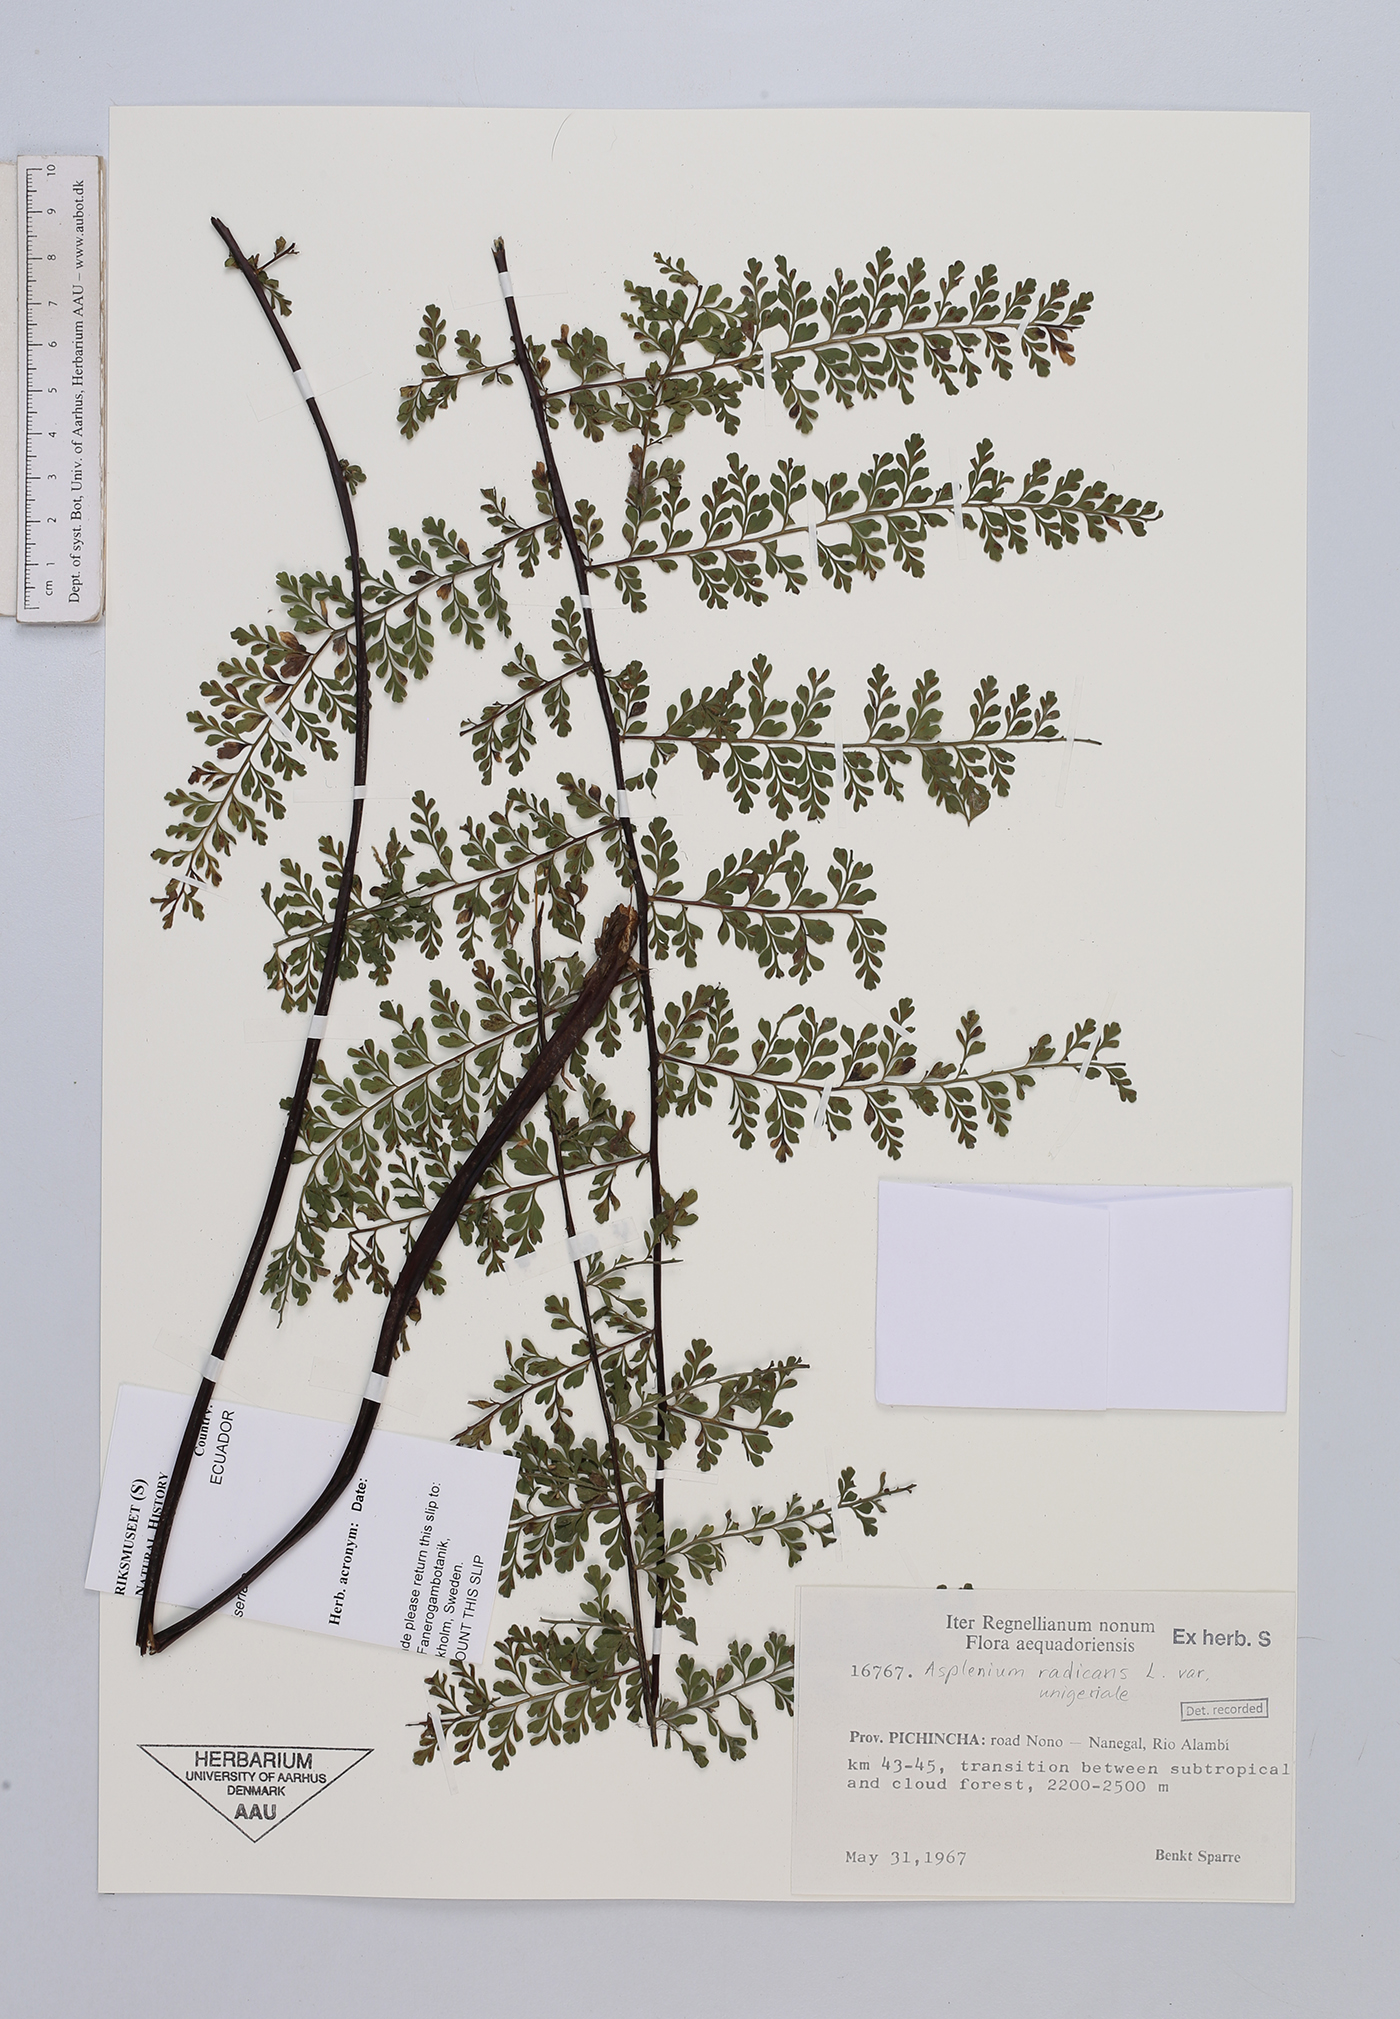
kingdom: Plantae
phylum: Tracheophyta
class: Polypodiopsida
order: Polypodiales
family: Aspleniaceae
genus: Asplenium
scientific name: Asplenium uniseriale
